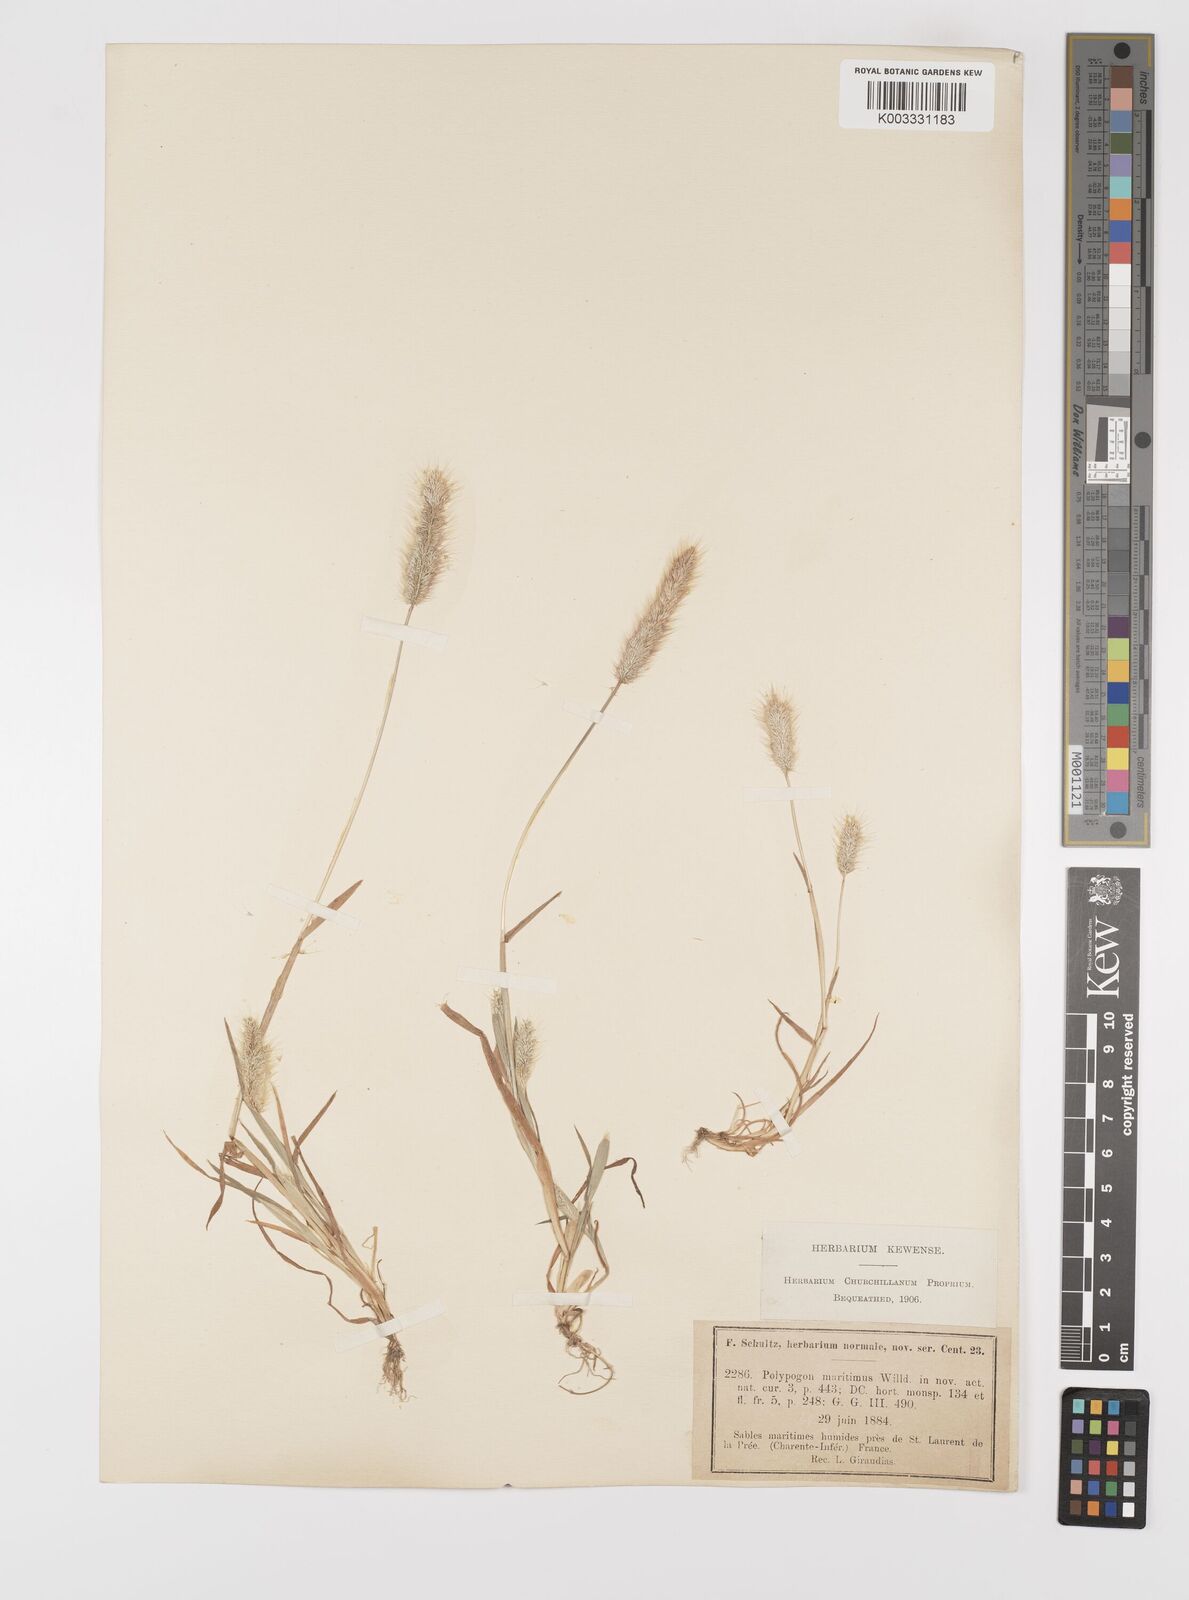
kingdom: Plantae
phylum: Tracheophyta
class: Liliopsida
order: Poales
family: Poaceae
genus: Polypogon
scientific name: Polypogon maritimus
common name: Mediterranean rabbitsfoot grass
